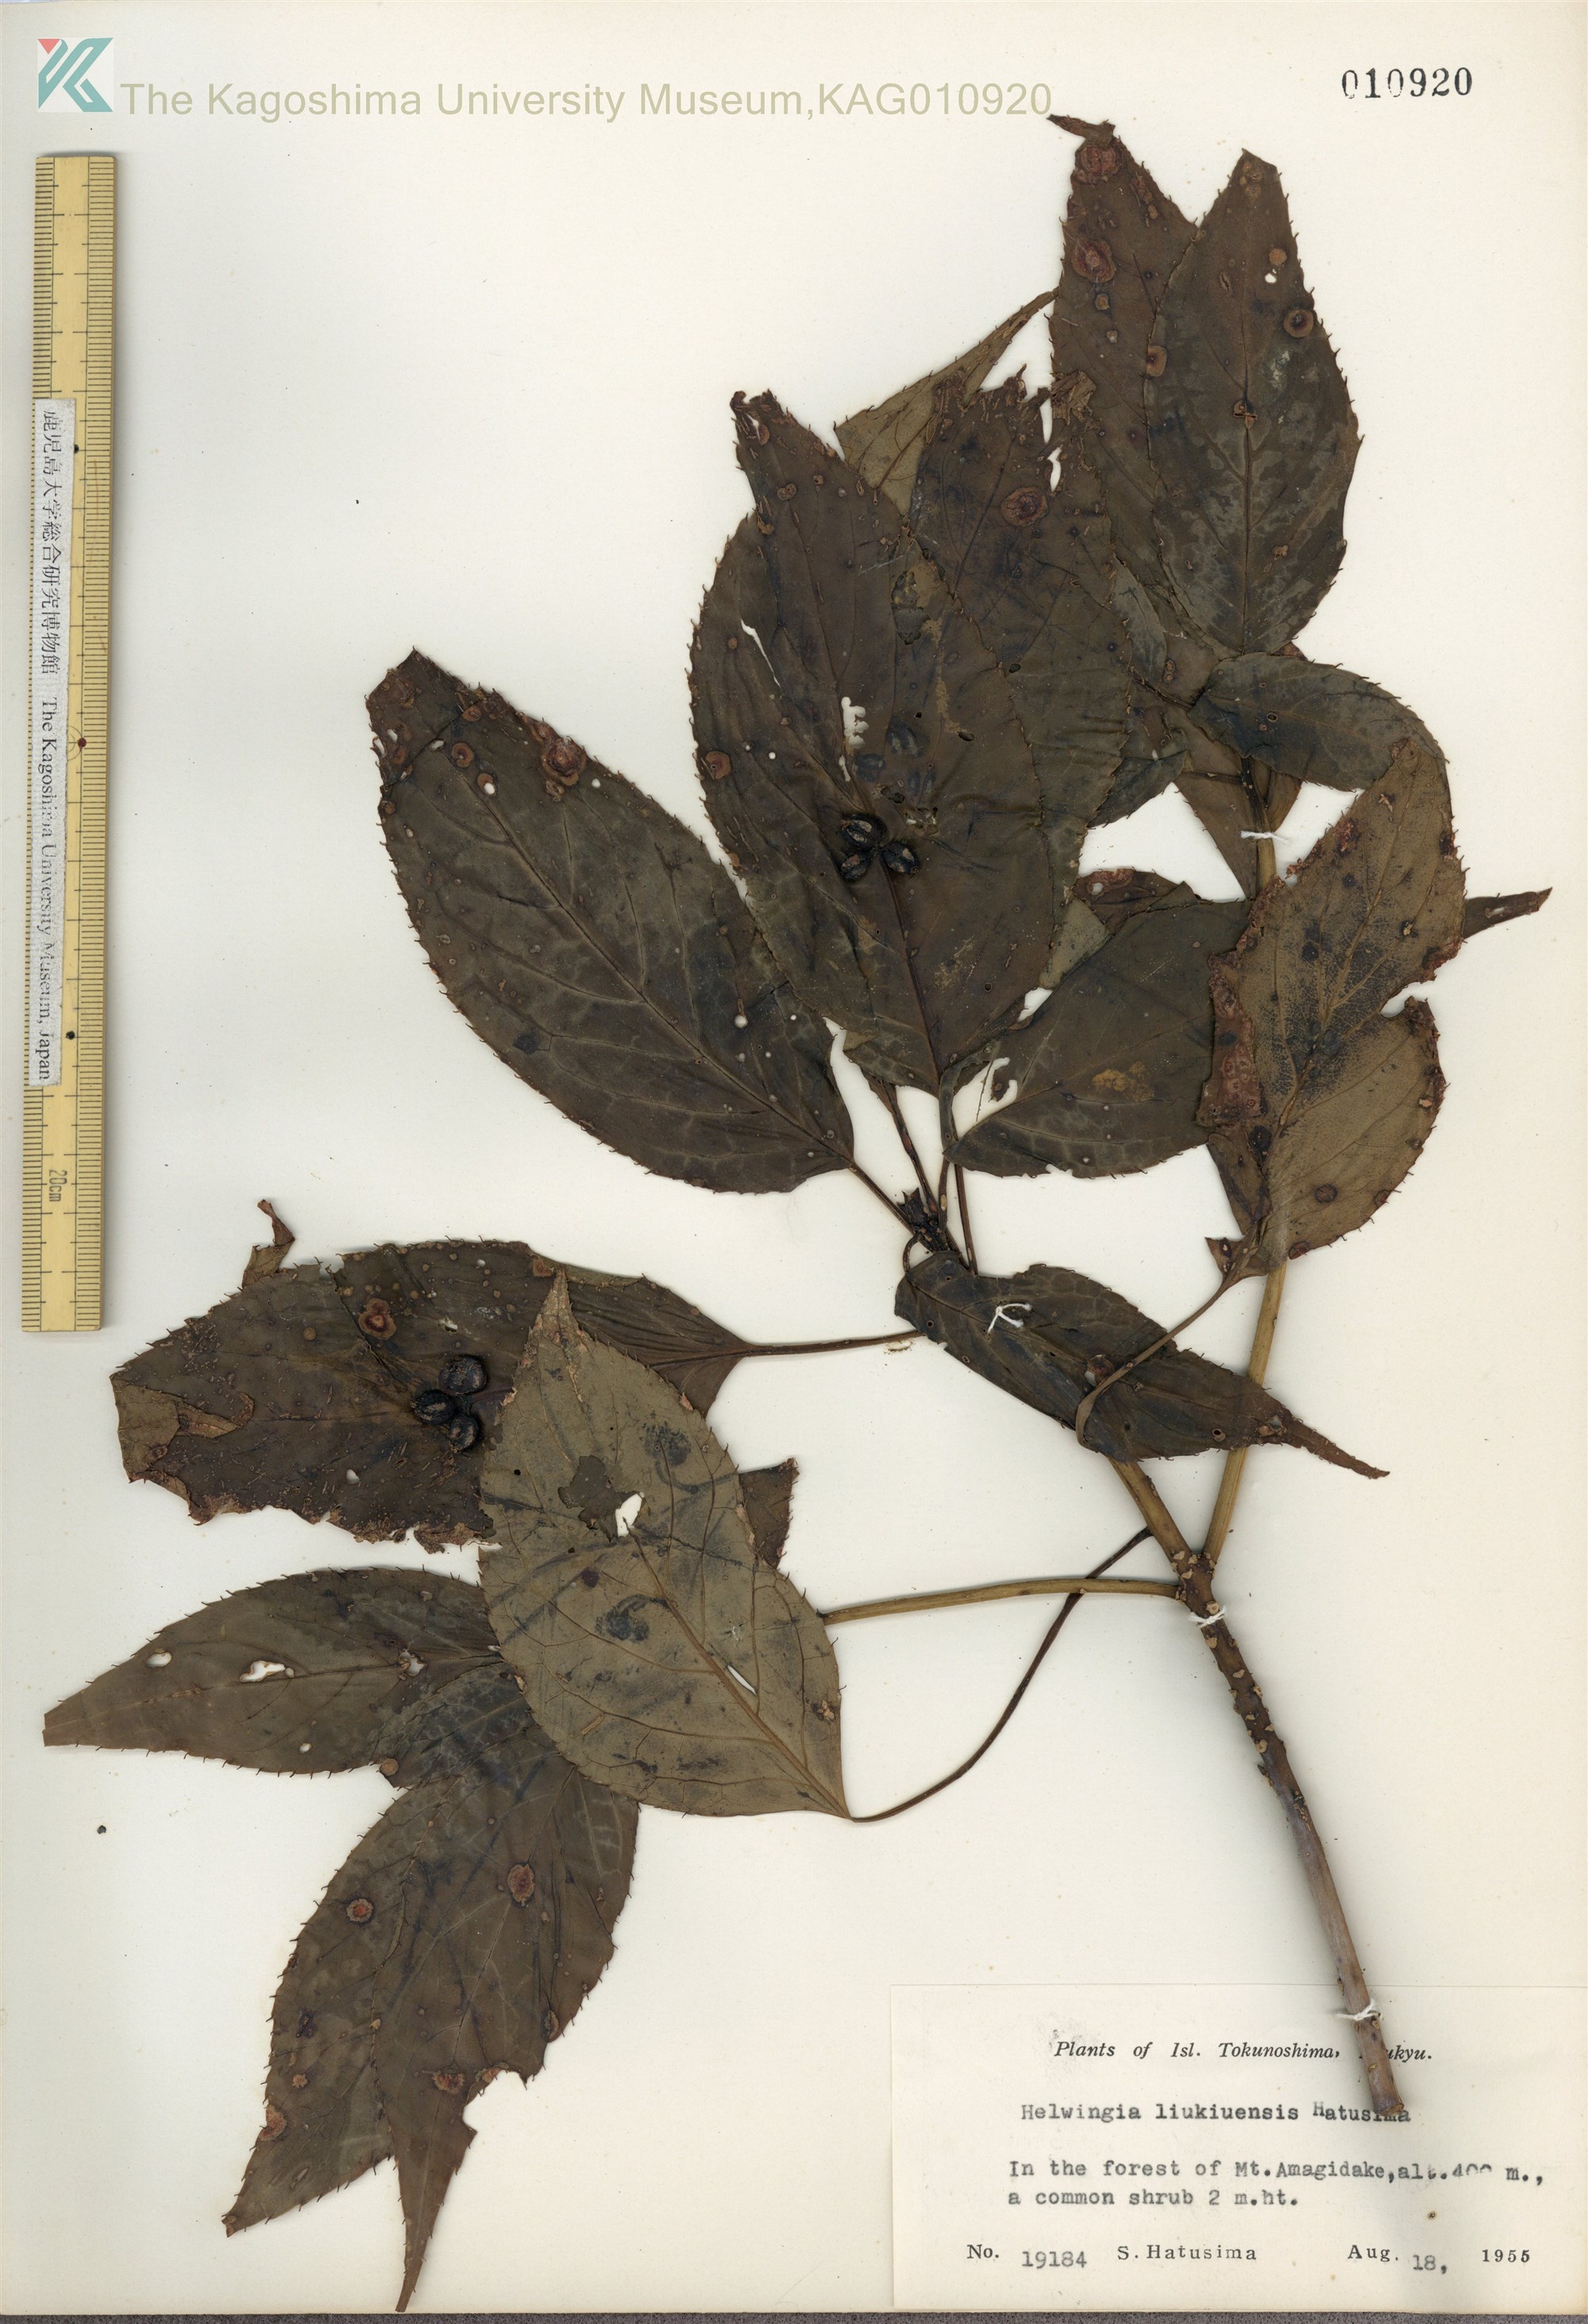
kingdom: Plantae
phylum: Tracheophyta
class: Magnoliopsida
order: Aquifoliales
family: Helwingiaceae
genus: Helwingia
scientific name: Helwingia japonica
